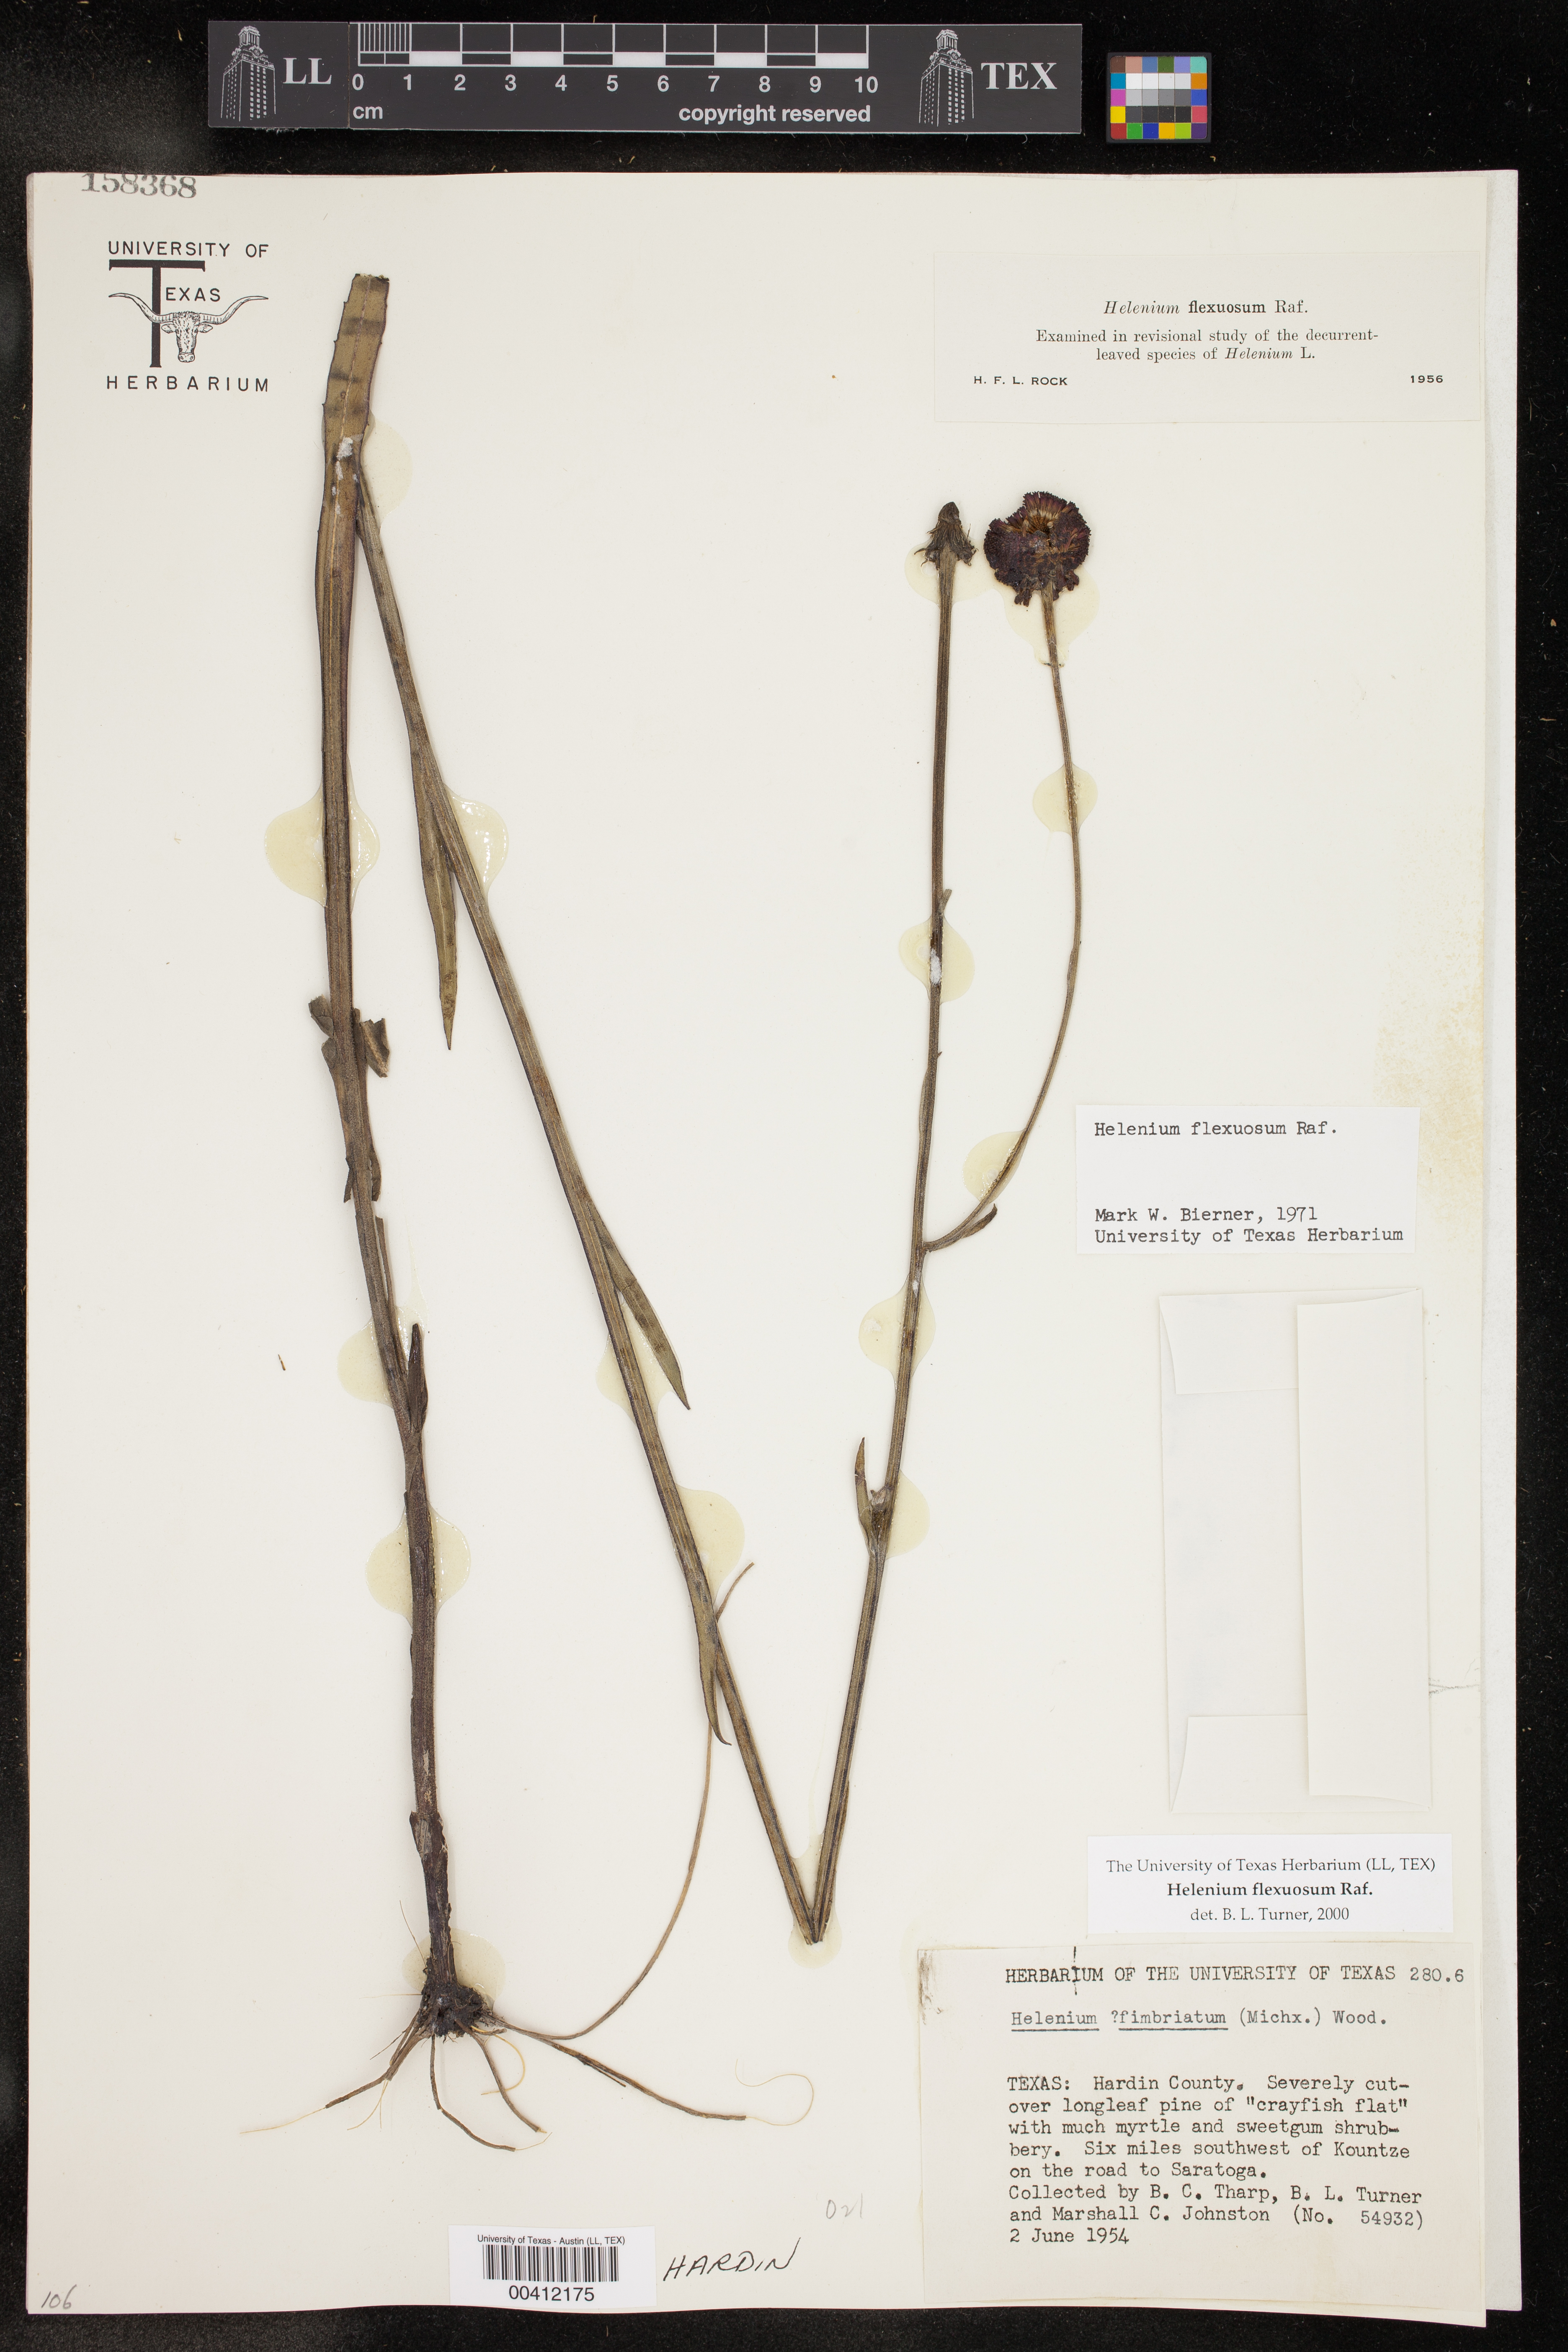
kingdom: Plantae
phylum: Tracheophyta
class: Magnoliopsida
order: Asterales
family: Asteraceae
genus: Helenium
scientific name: Helenium flexuosum
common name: Naked-flowered sneezeweed
